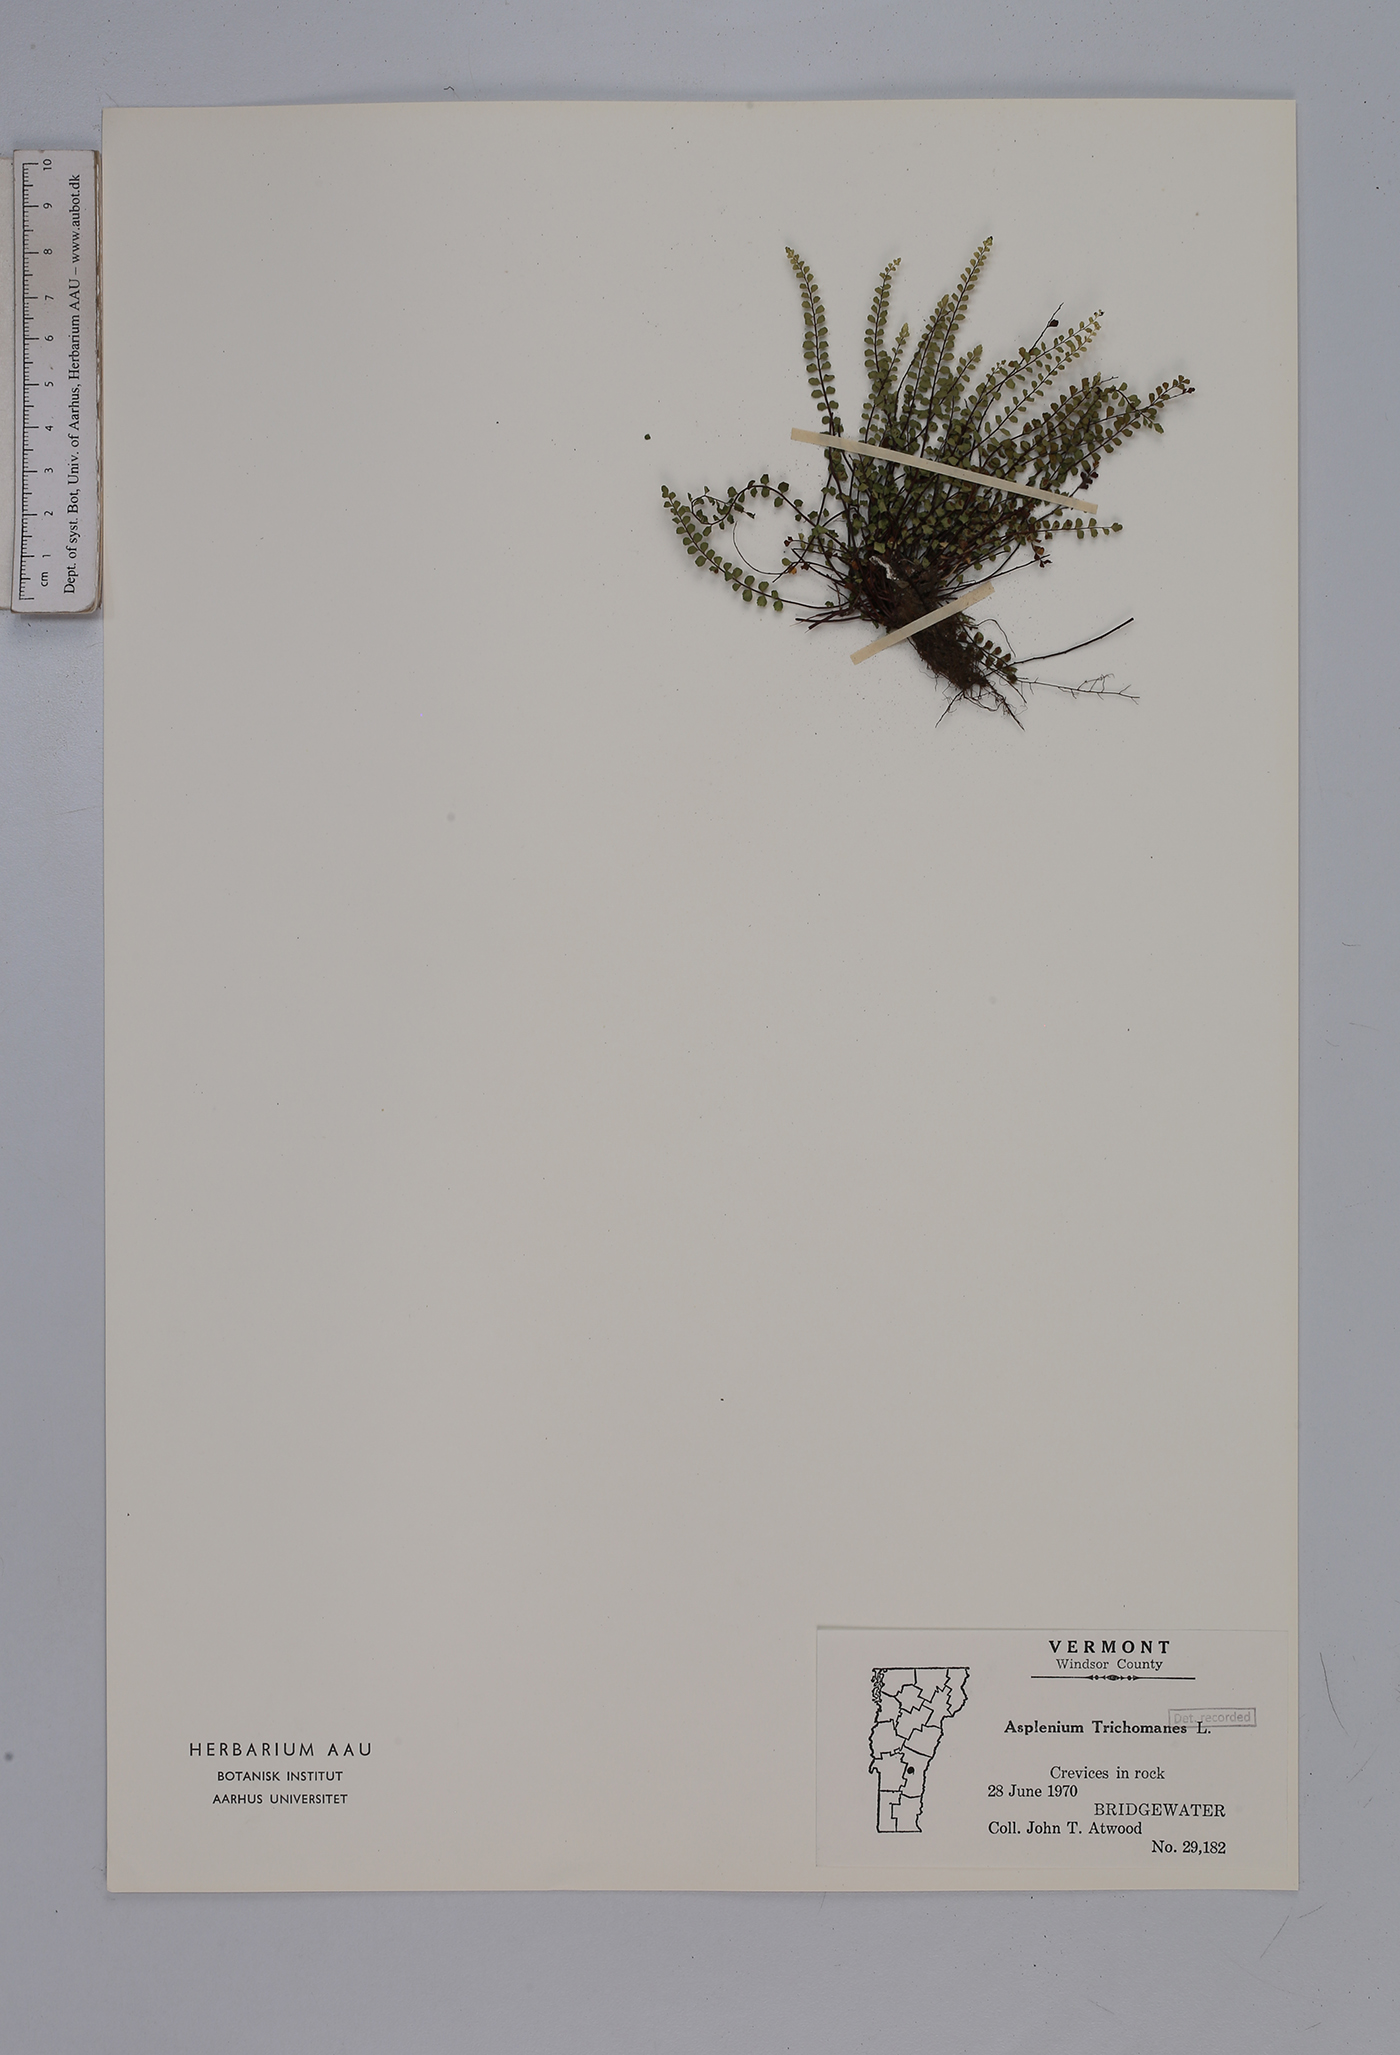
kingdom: Plantae
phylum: Tracheophyta
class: Polypodiopsida
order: Polypodiales
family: Aspleniaceae
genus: Asplenium
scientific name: Asplenium trichomanes
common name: Maidenhair spleenwort
